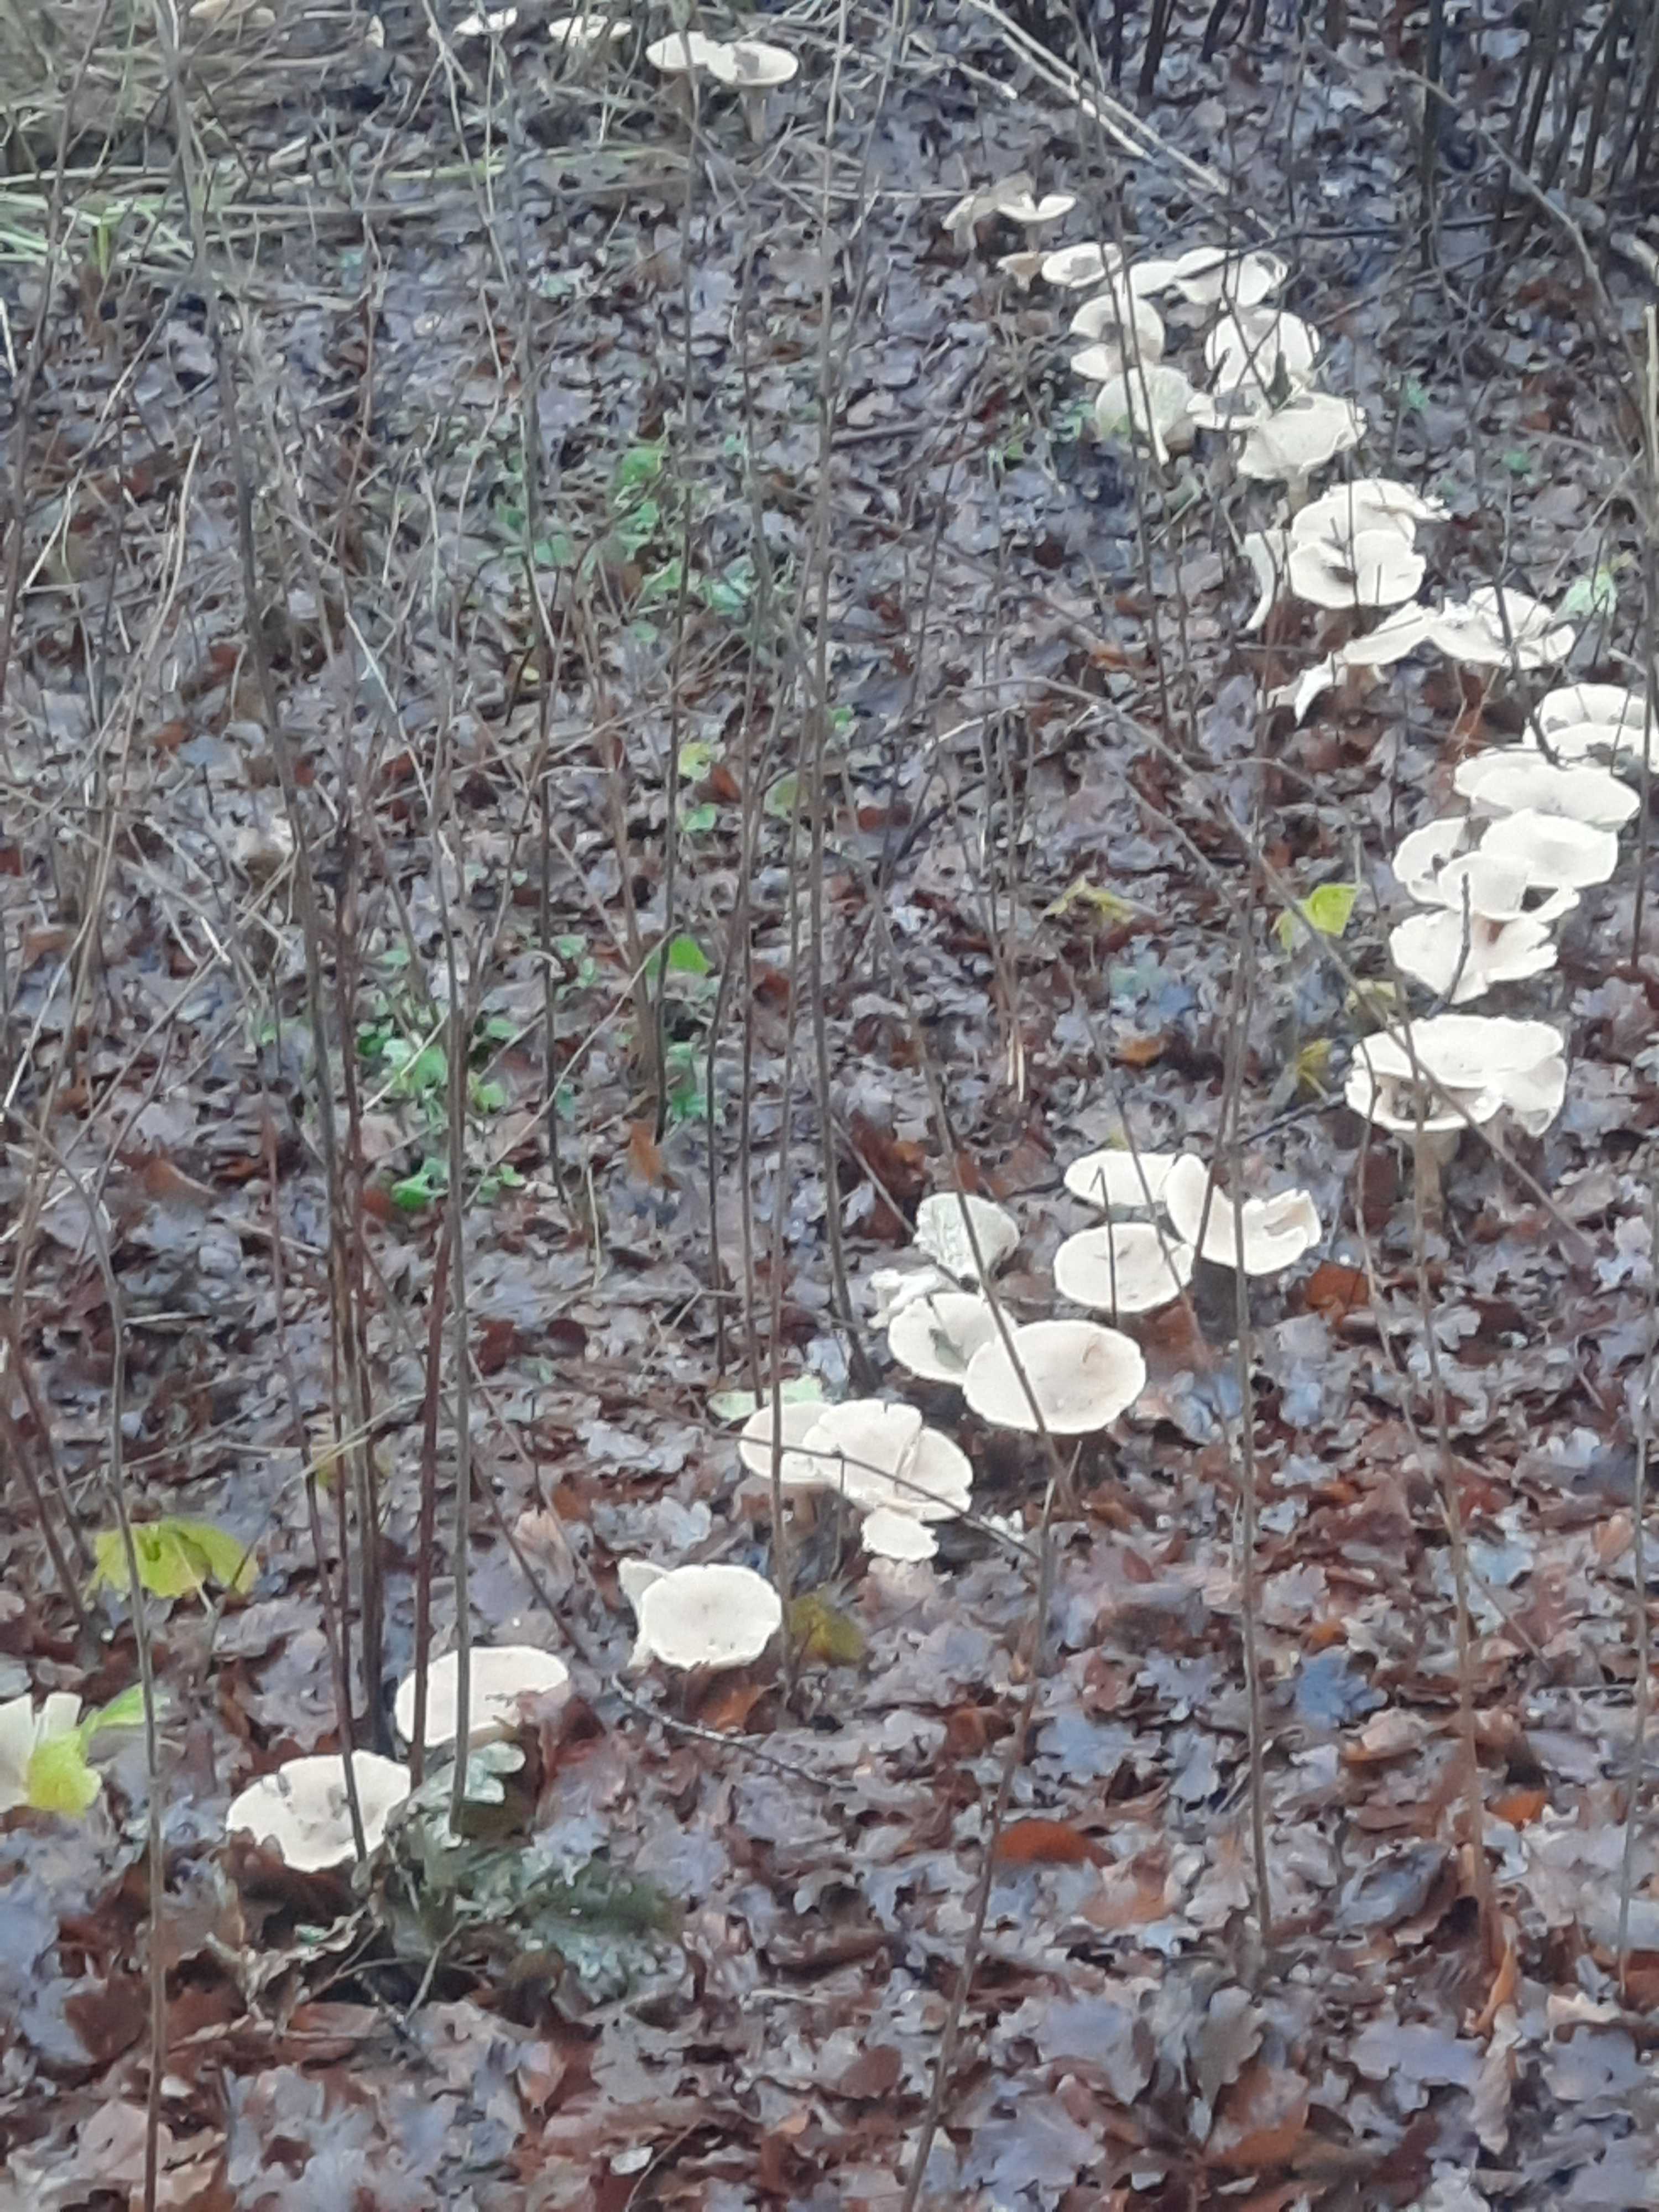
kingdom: Fungi
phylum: Basidiomycota
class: Agaricomycetes
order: Agaricales
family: Tricholomataceae
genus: Infundibulicybe
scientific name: Infundibulicybe geotropa
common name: stor tragthat
